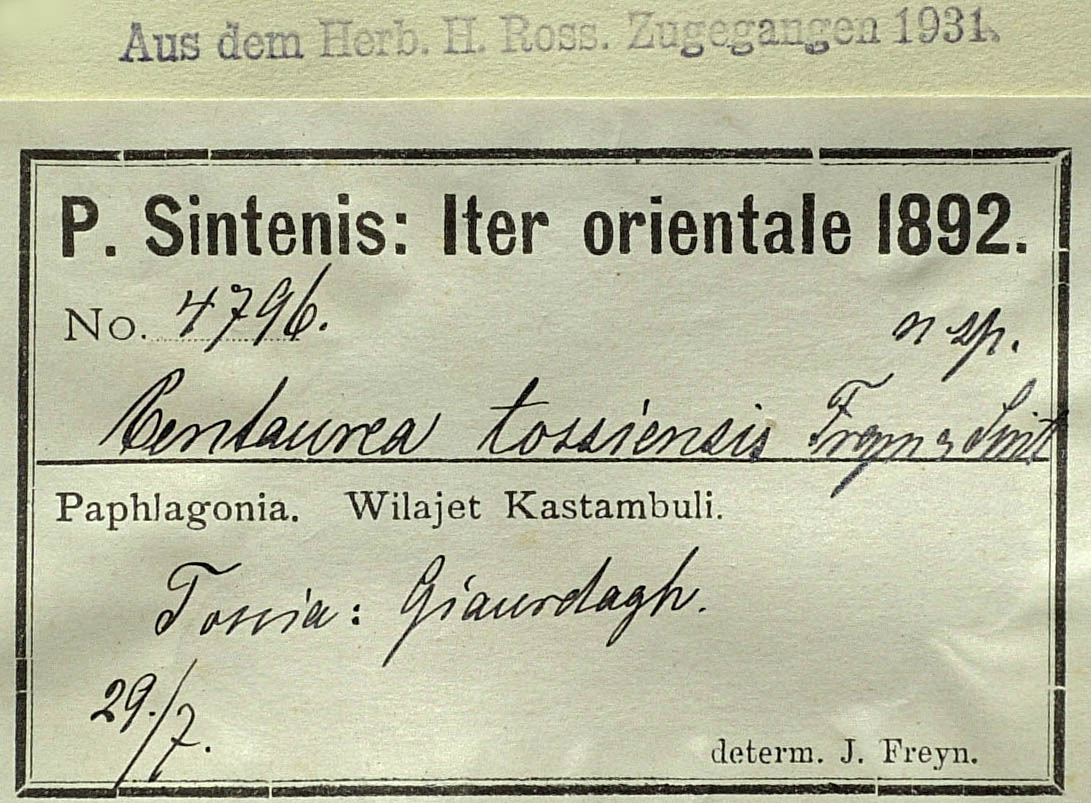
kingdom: Plantae
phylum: Tracheophyta
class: Magnoliopsida
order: Asterales
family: Asteraceae
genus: Centaurea
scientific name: Centaurea tossiensis
